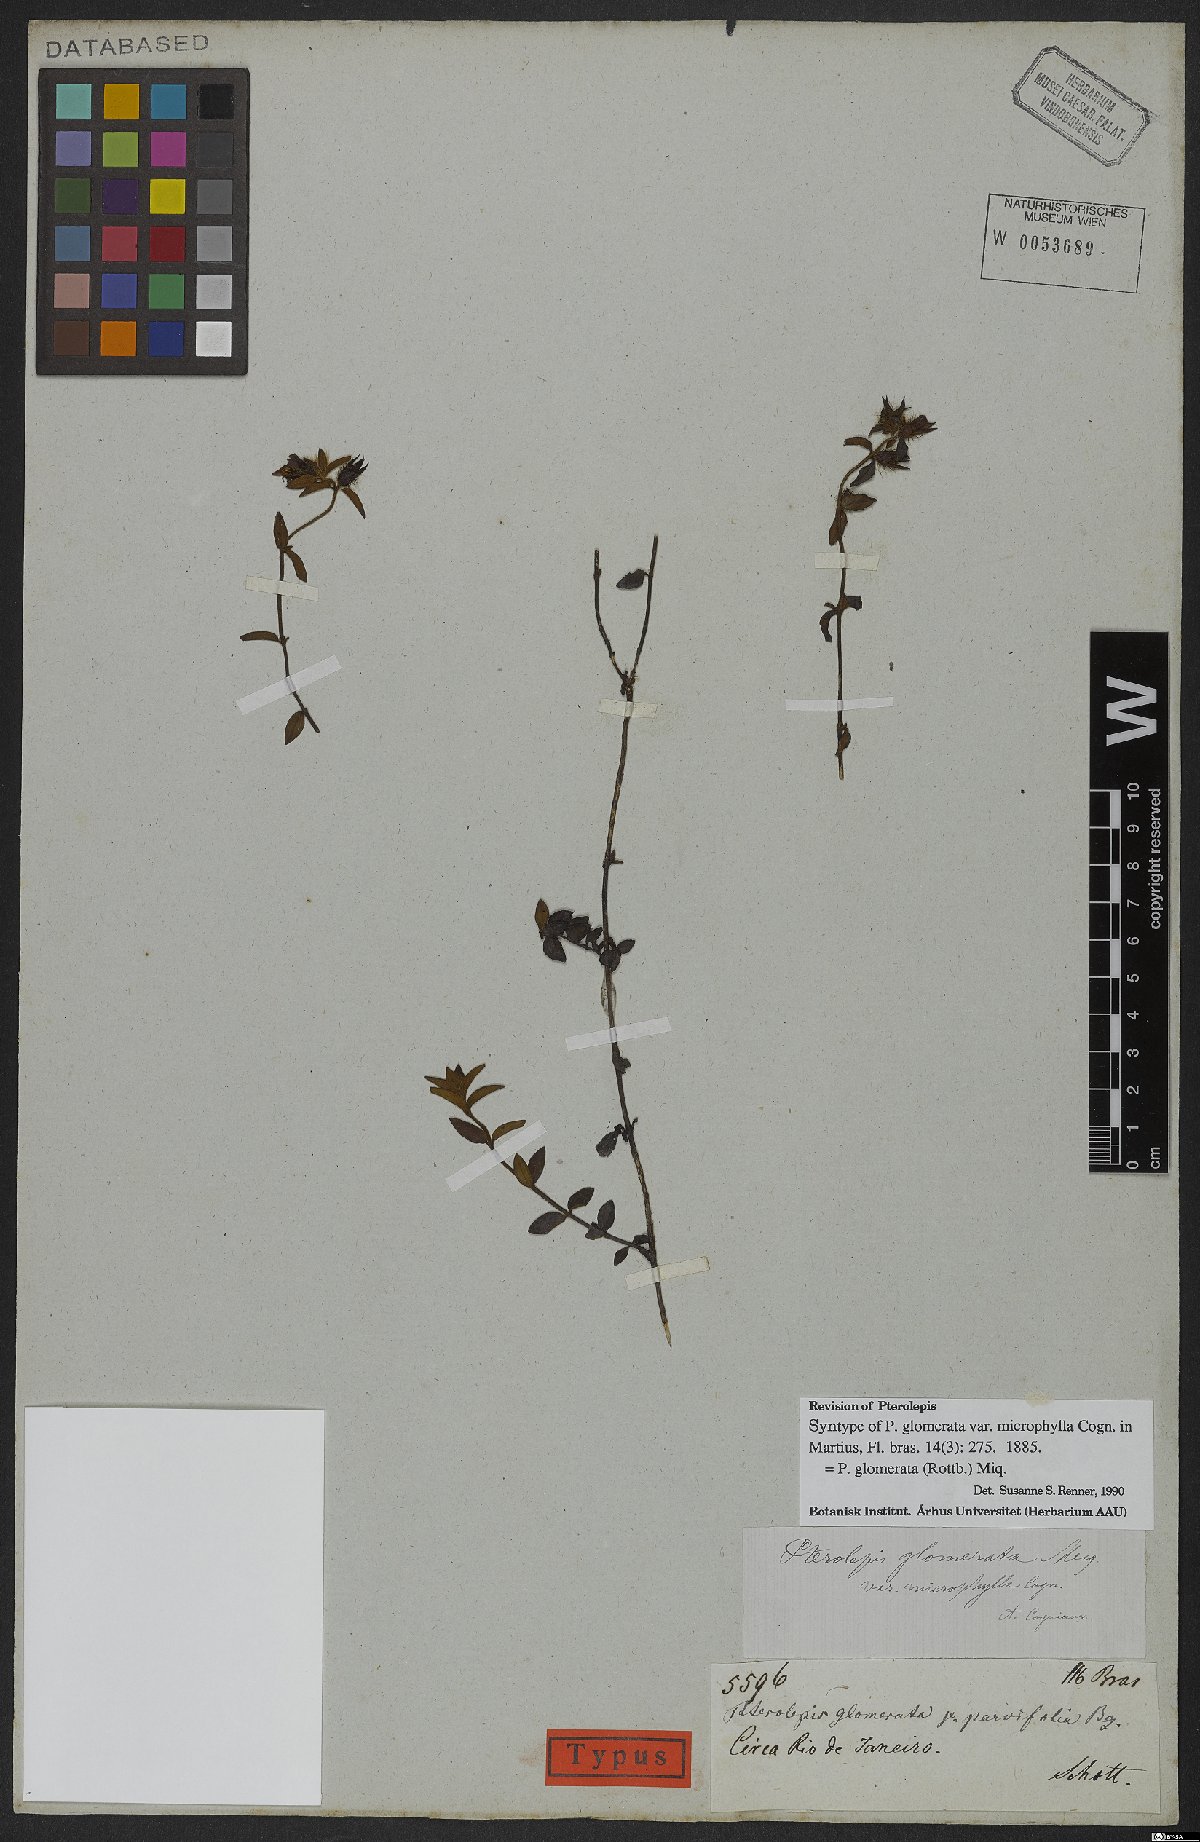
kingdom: Plantae
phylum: Tracheophyta
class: Magnoliopsida
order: Myrtales
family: Melastomataceae
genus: Pterolepis
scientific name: Pterolepis glomerata
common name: False meadowbeauty
